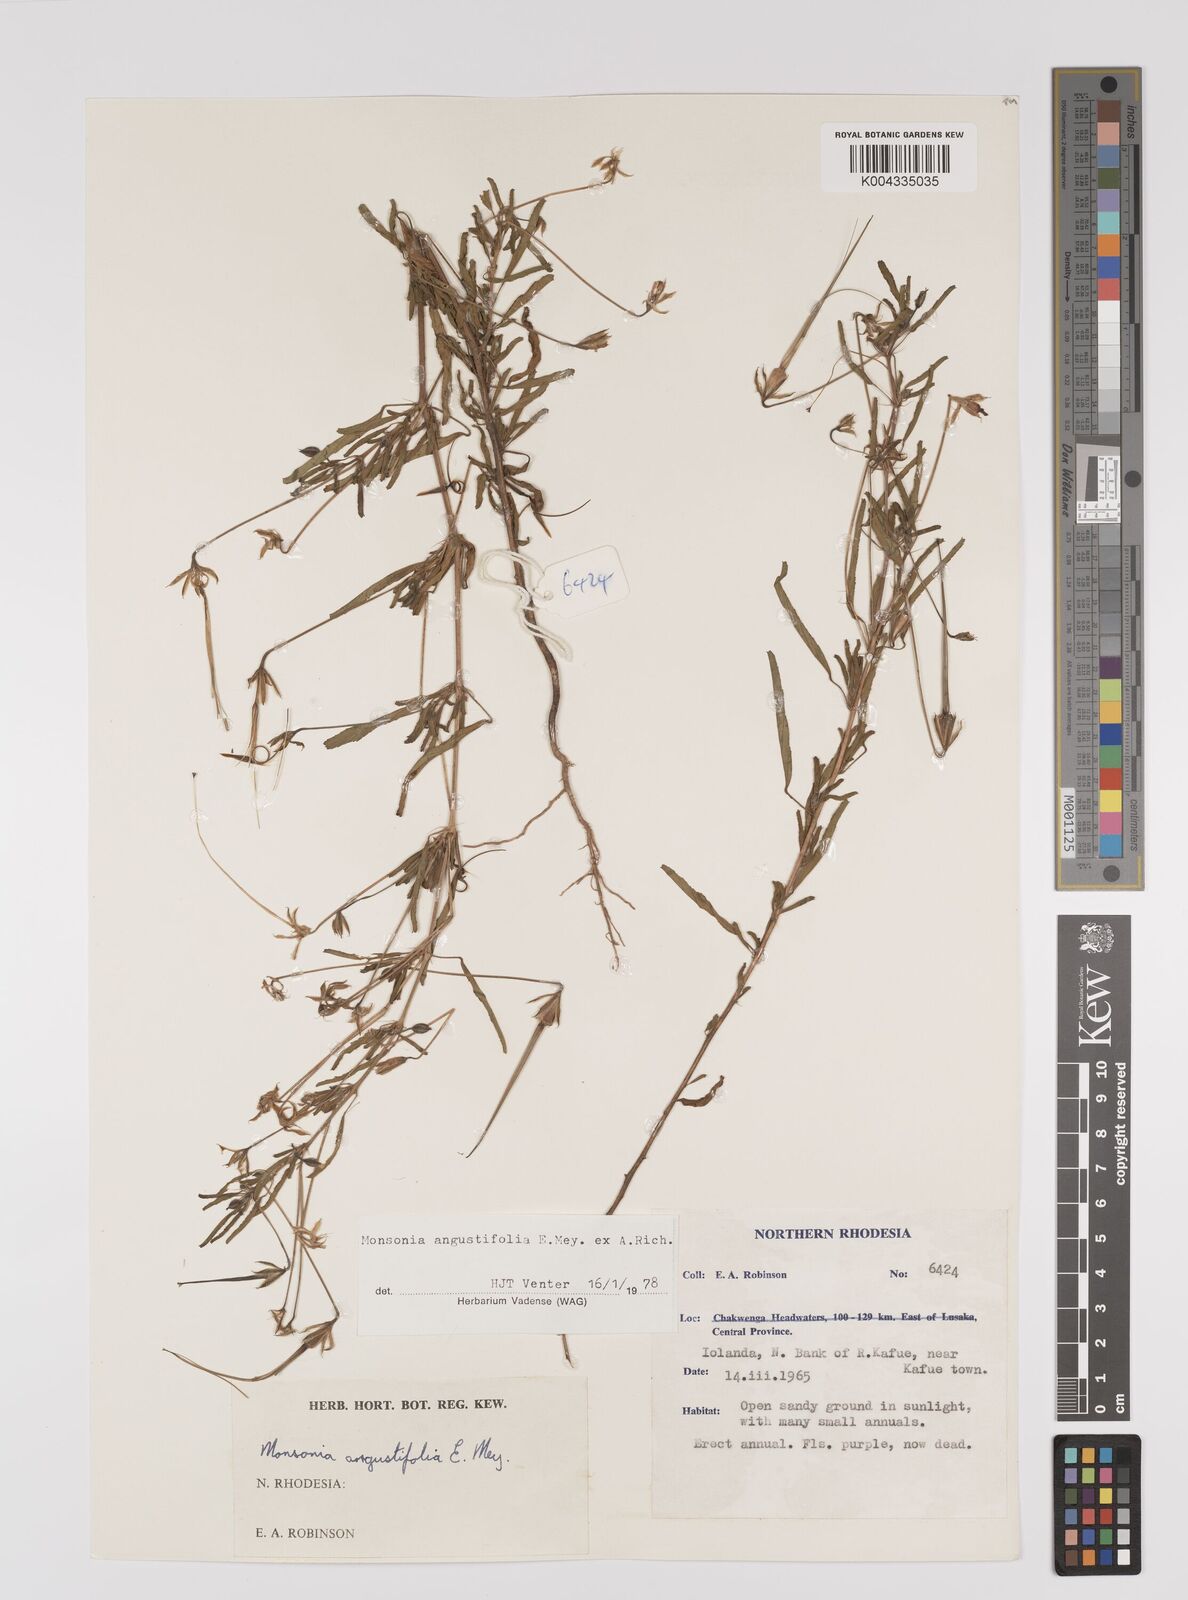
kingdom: Plantae
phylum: Tracheophyta
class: Magnoliopsida
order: Geraniales
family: Geraniaceae
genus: Monsonia
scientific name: Monsonia angustifolia
